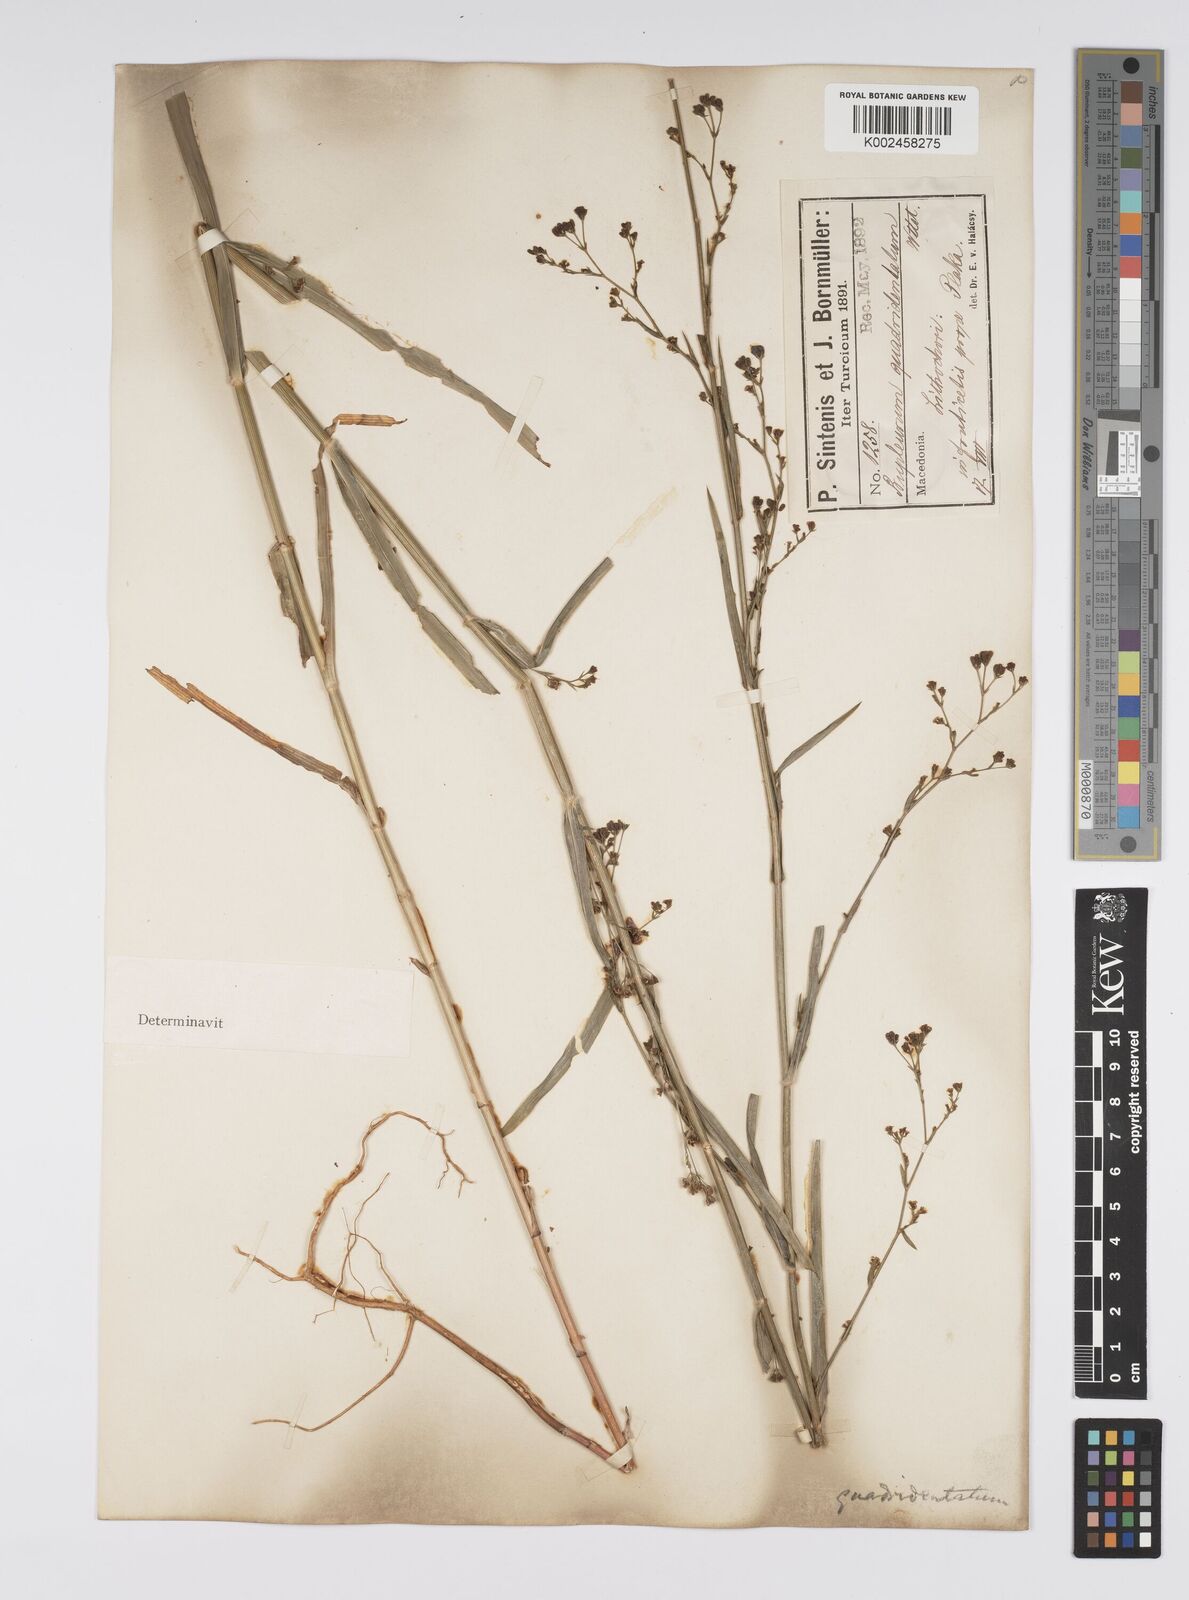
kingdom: Plantae
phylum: Tracheophyta
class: Magnoliopsida
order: Apiales
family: Apiaceae
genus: Bupleurum
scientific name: Bupleurum praealtum
